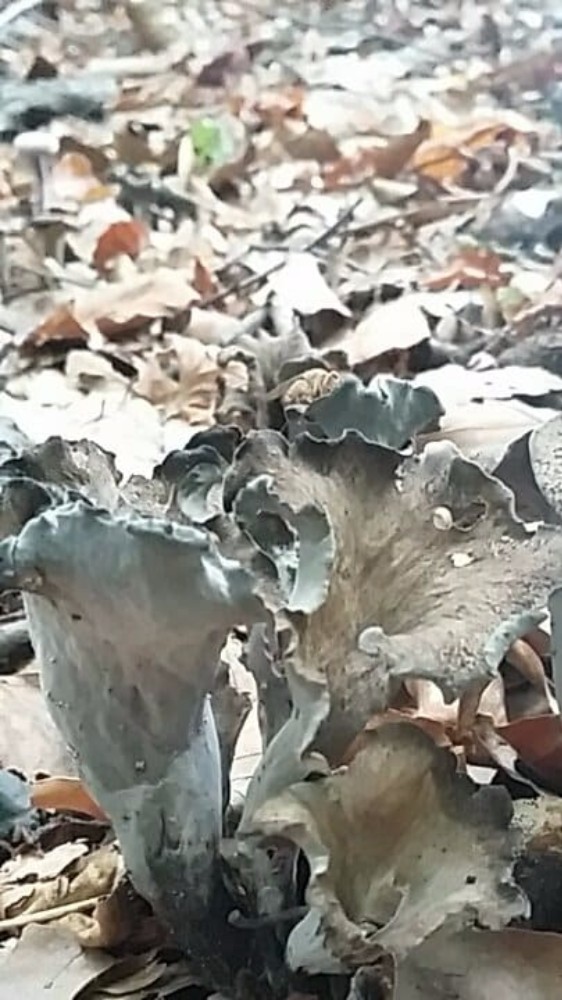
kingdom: Fungi
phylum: Basidiomycota
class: Agaricomycetes
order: Cantharellales
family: Hydnaceae
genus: Craterellus
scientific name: Craterellus cornucopioides
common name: trompetsvamp
